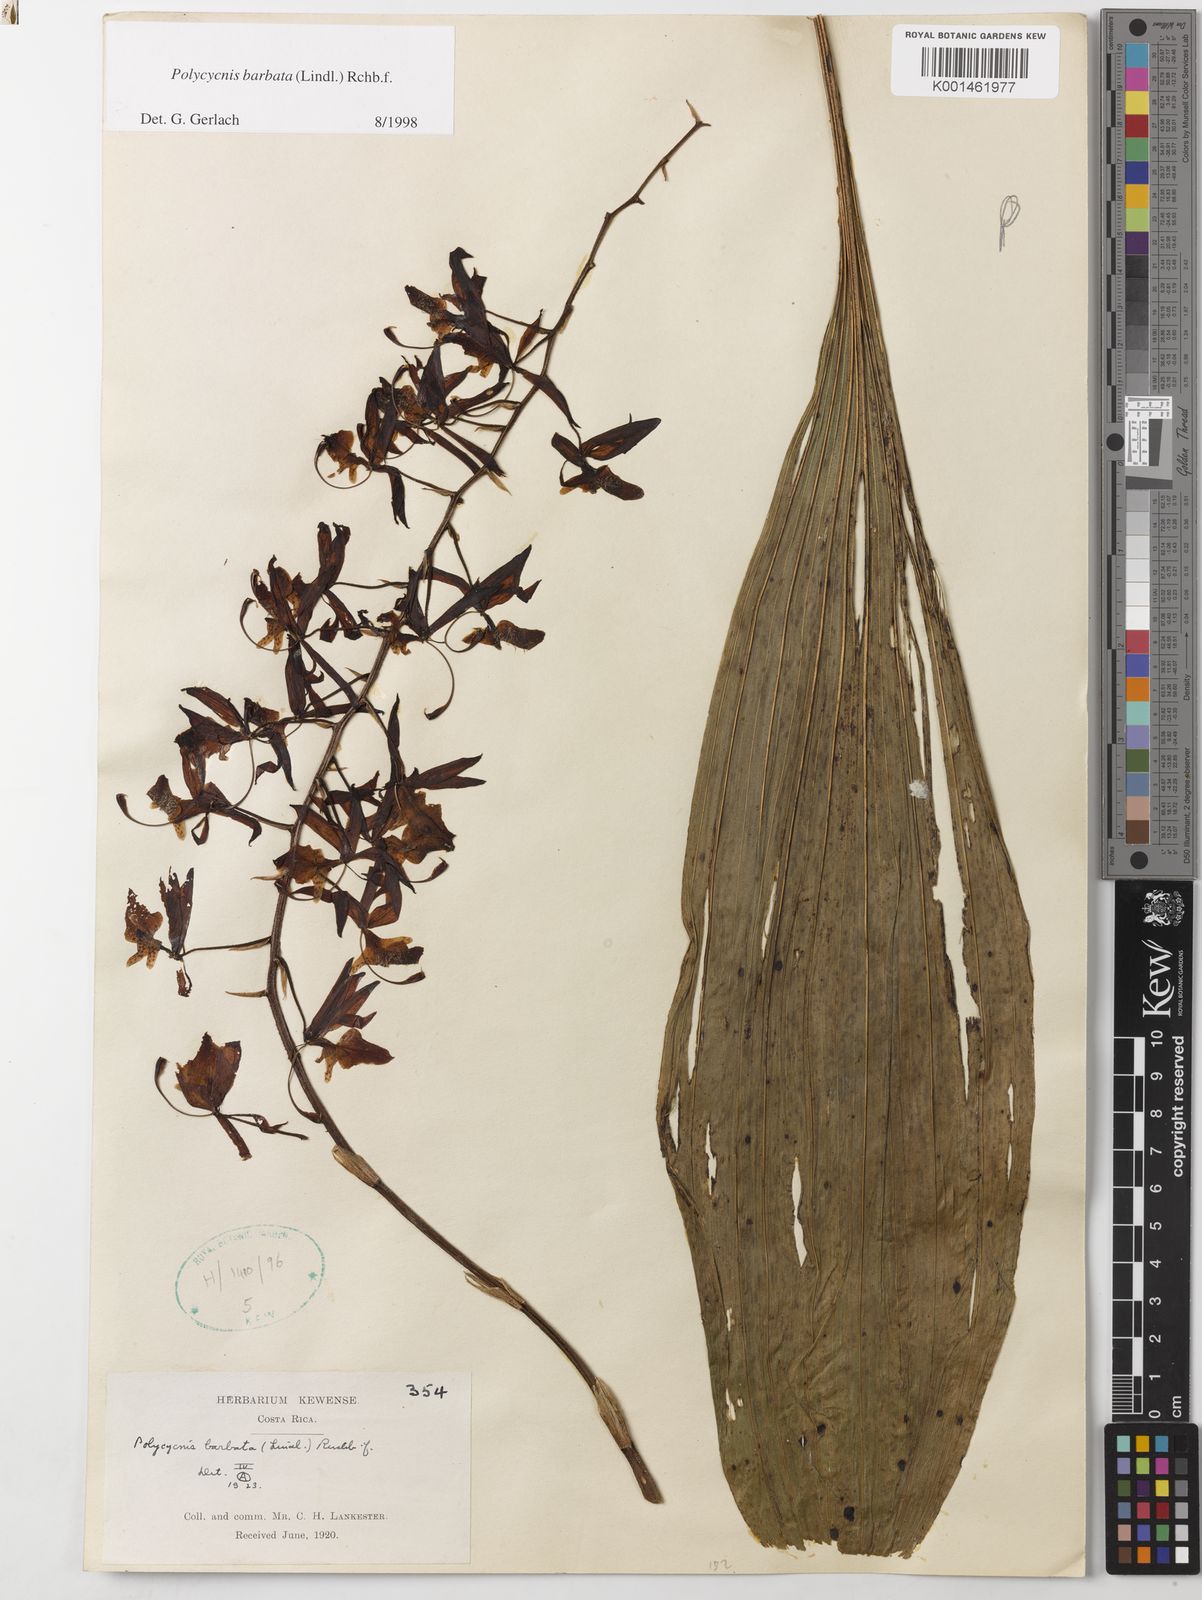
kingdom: Plantae
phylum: Tracheophyta
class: Liliopsida
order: Asparagales
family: Orchidaceae
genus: Polycycnis
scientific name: Polycycnis muscifera
